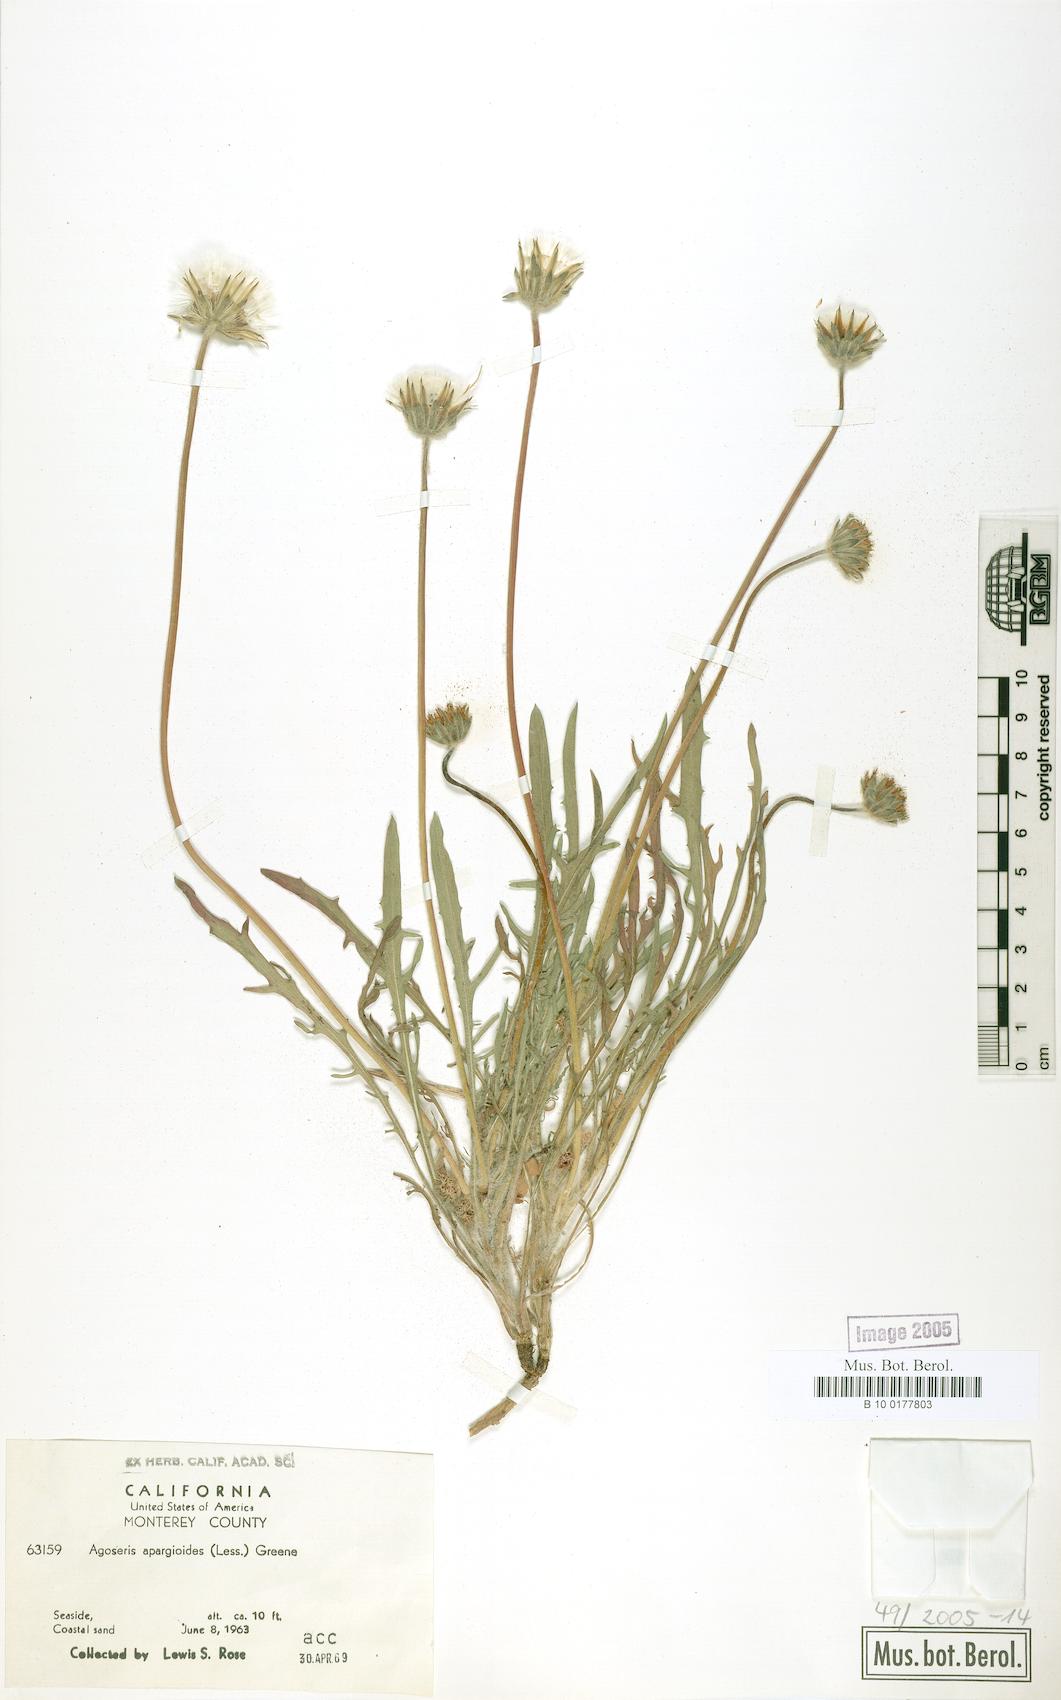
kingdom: Plantae
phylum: Tracheophyta
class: Magnoliopsida
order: Asterales
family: Asteraceae
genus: Agoseris
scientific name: Agoseris apargioides
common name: Point reyes agoseris
